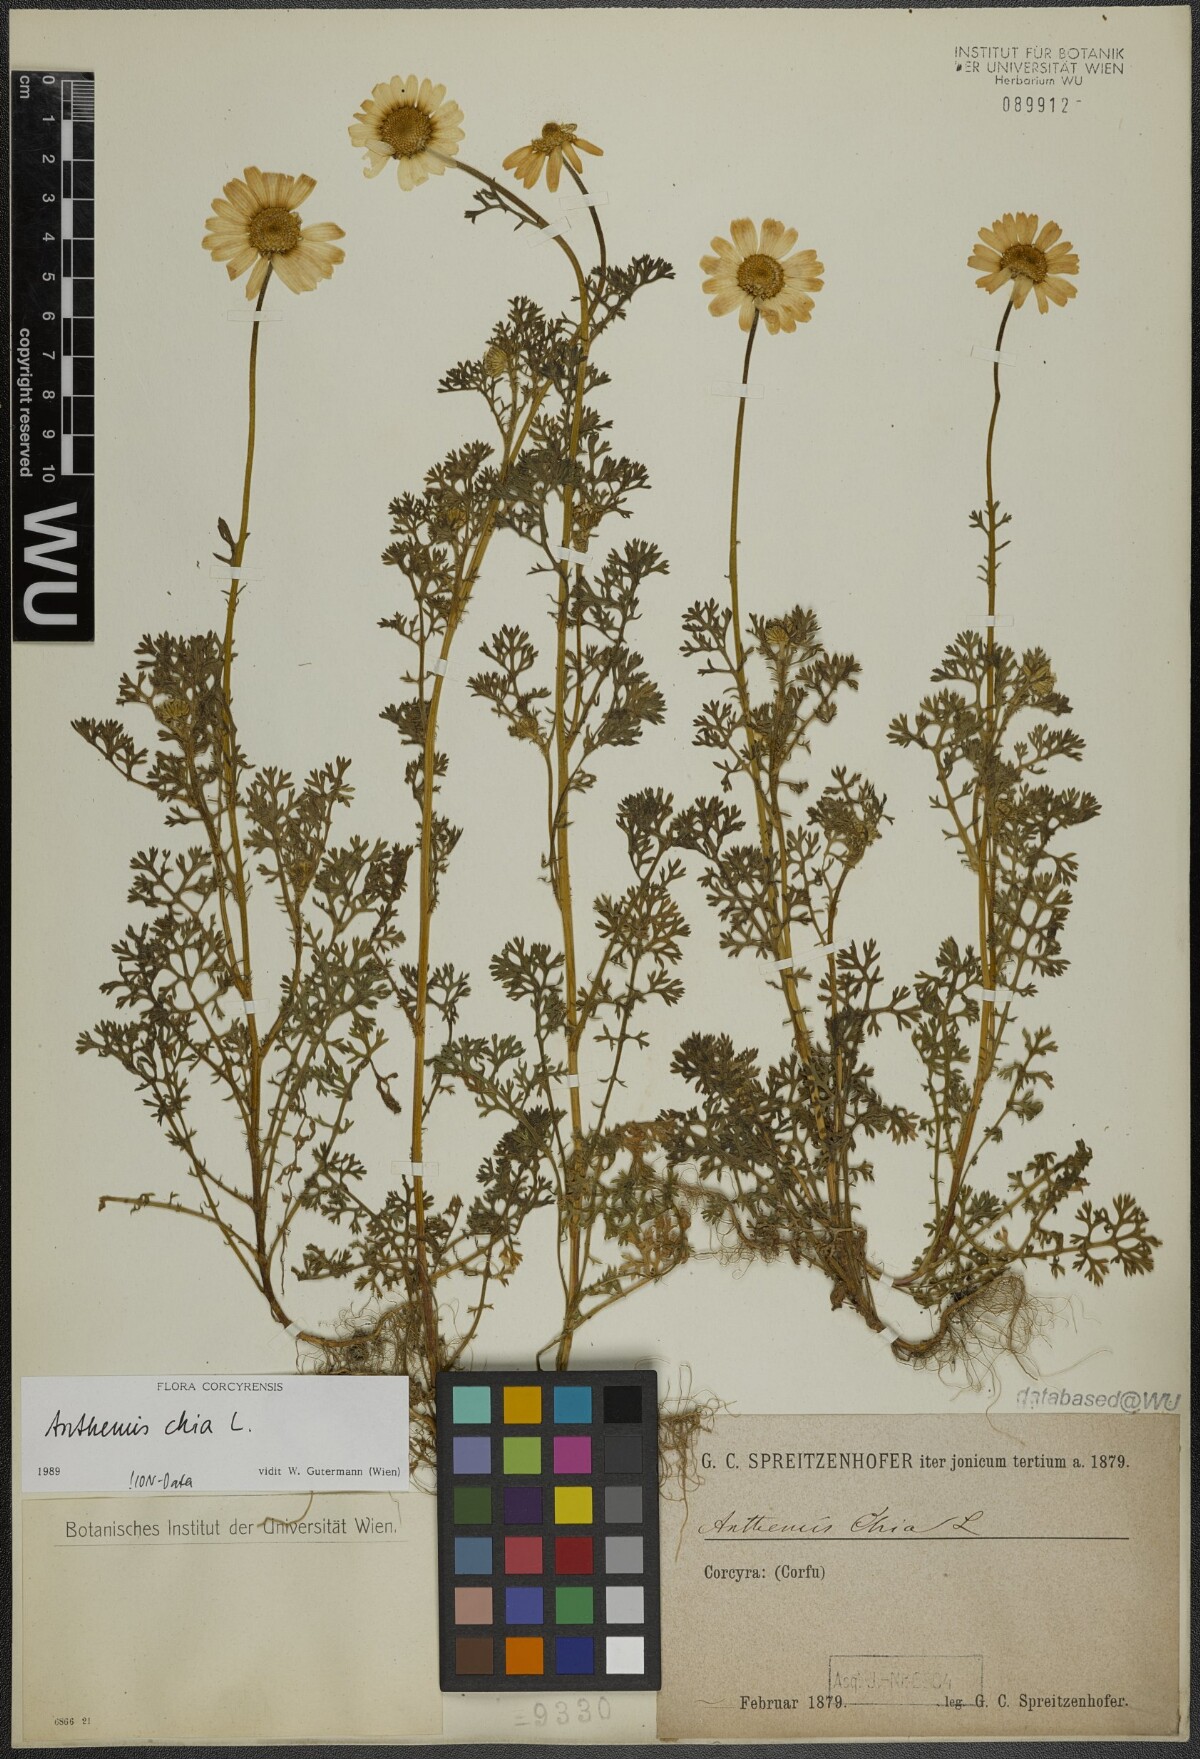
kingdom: Plantae
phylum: Tracheophyta
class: Magnoliopsida
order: Asterales
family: Asteraceae
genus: Anthemis
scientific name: Anthemis chia
